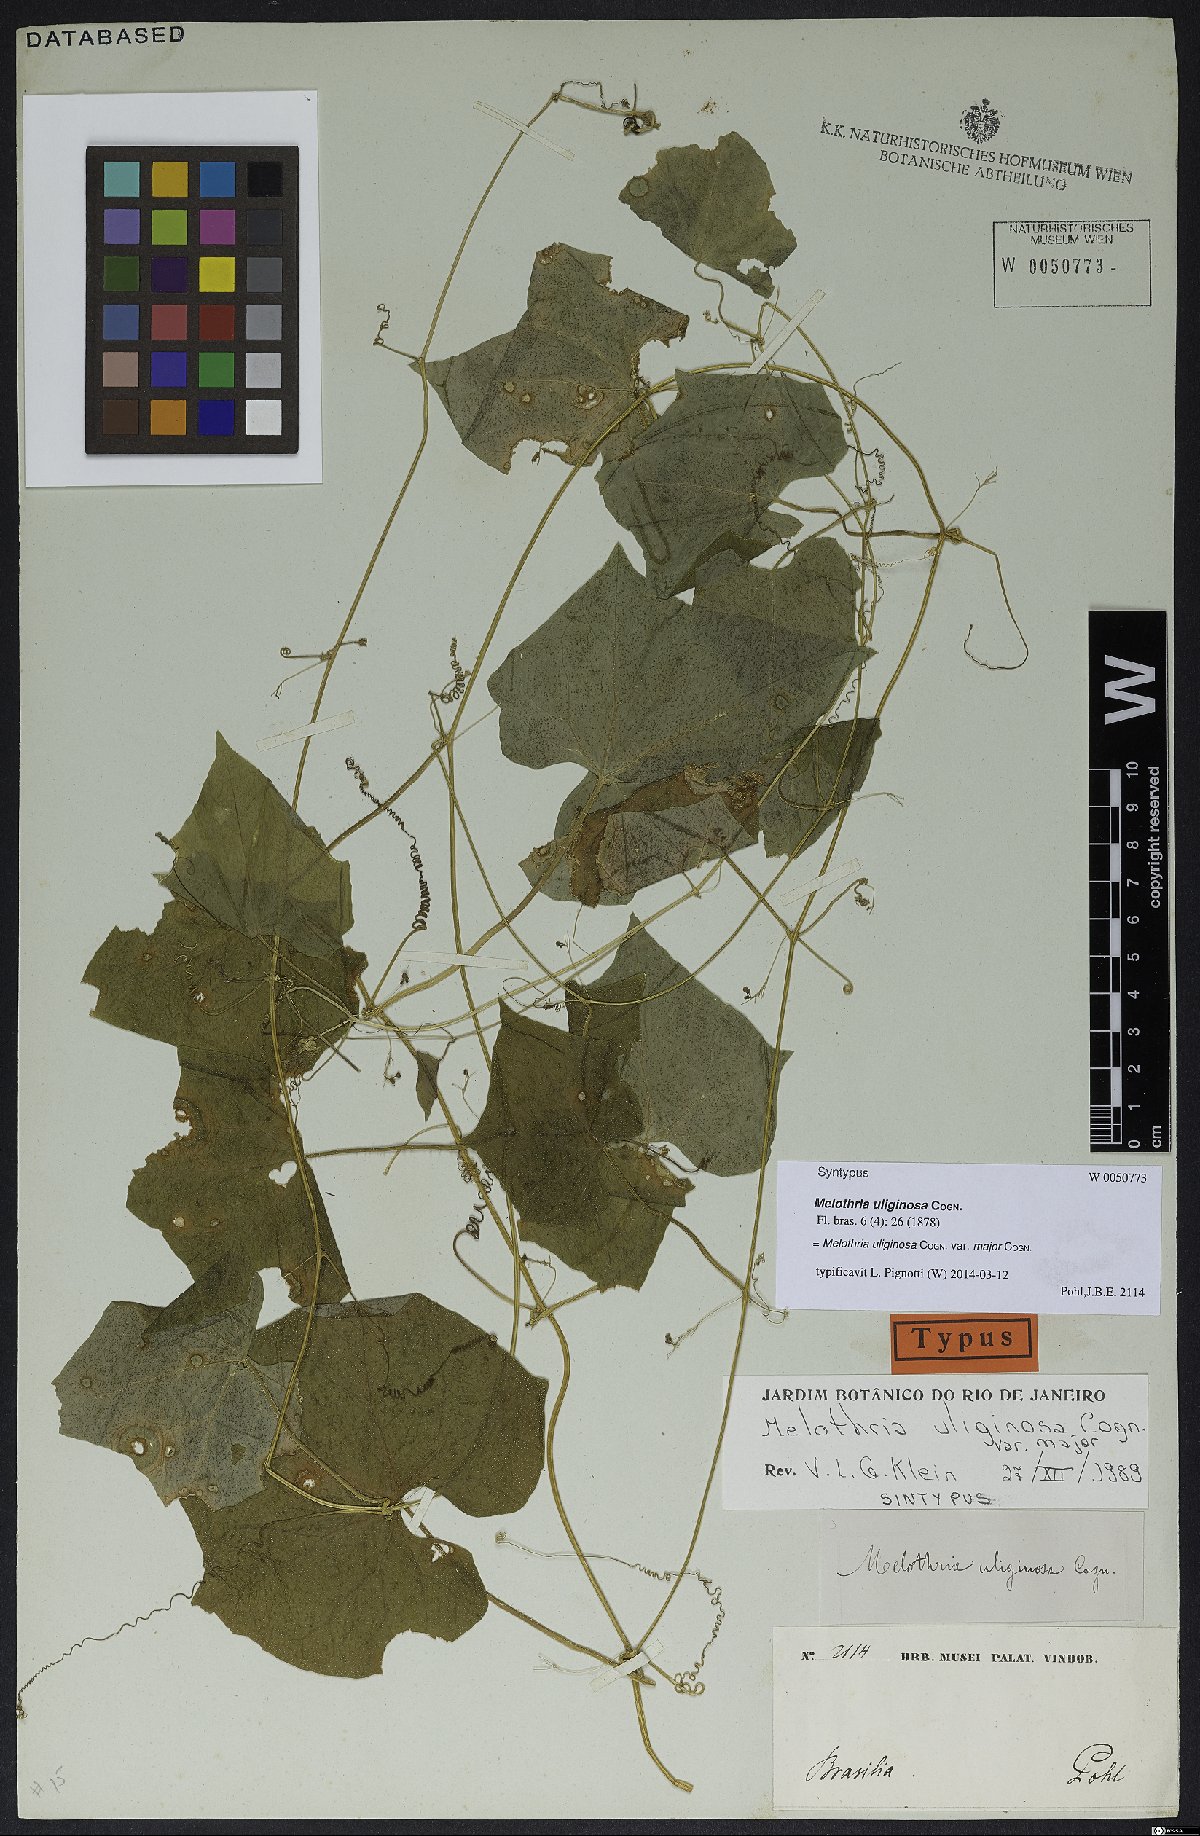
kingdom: Plantae
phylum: Tracheophyta
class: Magnoliopsida
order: Cucurbitales
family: Cucurbitaceae
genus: Melothria
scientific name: Melothria uliginosa
